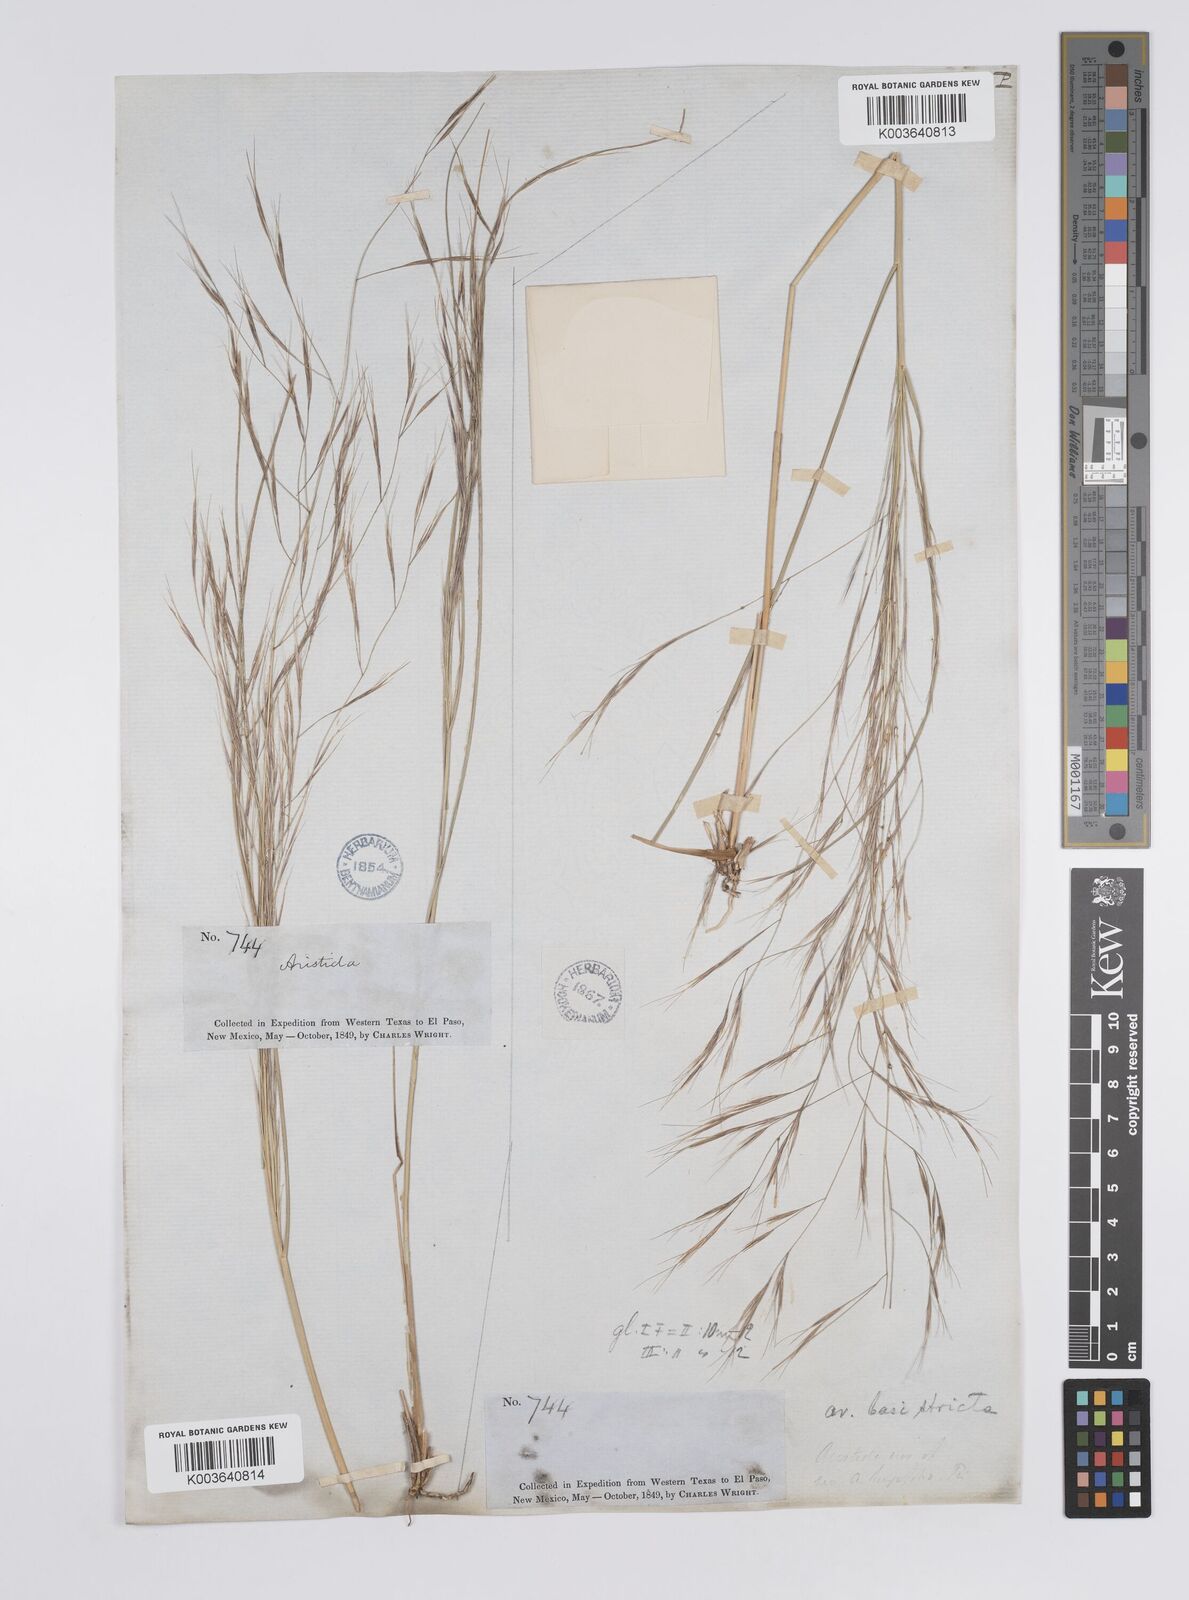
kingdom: Plantae
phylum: Tracheophyta
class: Liliopsida
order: Poales
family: Poaceae
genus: Aristida
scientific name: Aristida hamulosa
